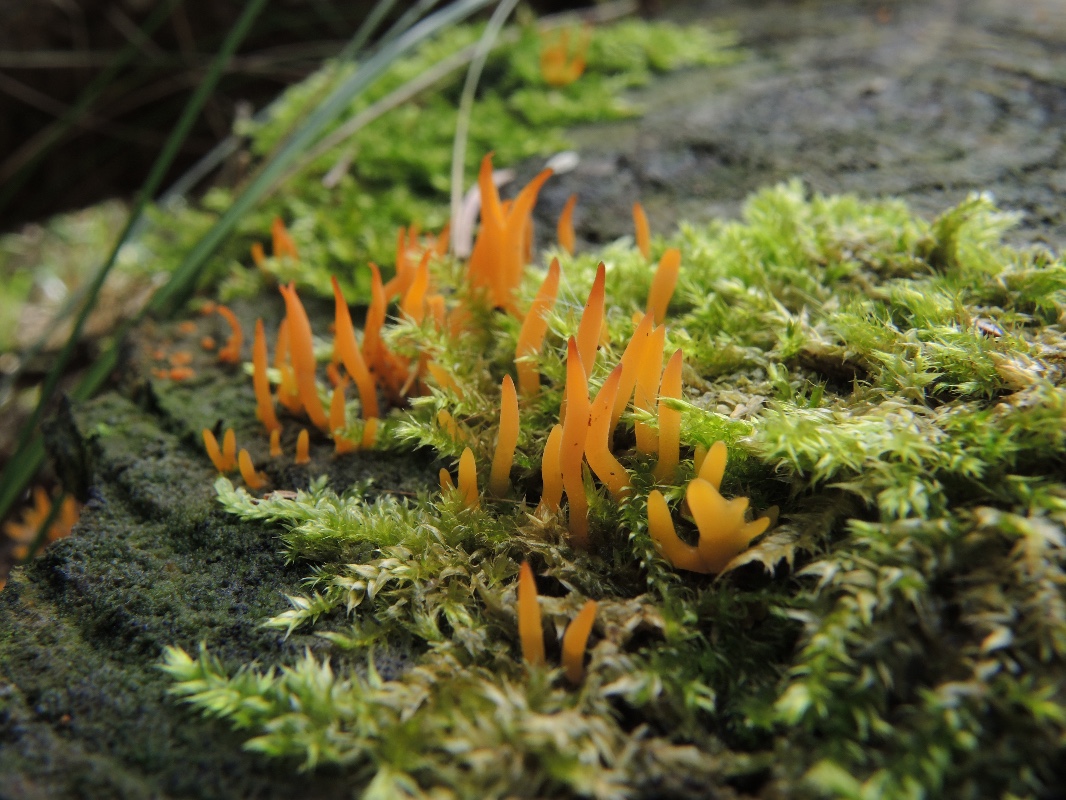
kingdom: Fungi
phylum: Basidiomycota
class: Dacrymycetes
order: Dacrymycetales
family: Dacrymycetaceae
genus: Calocera
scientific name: Calocera furcata
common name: fyrre-guldgaffel
